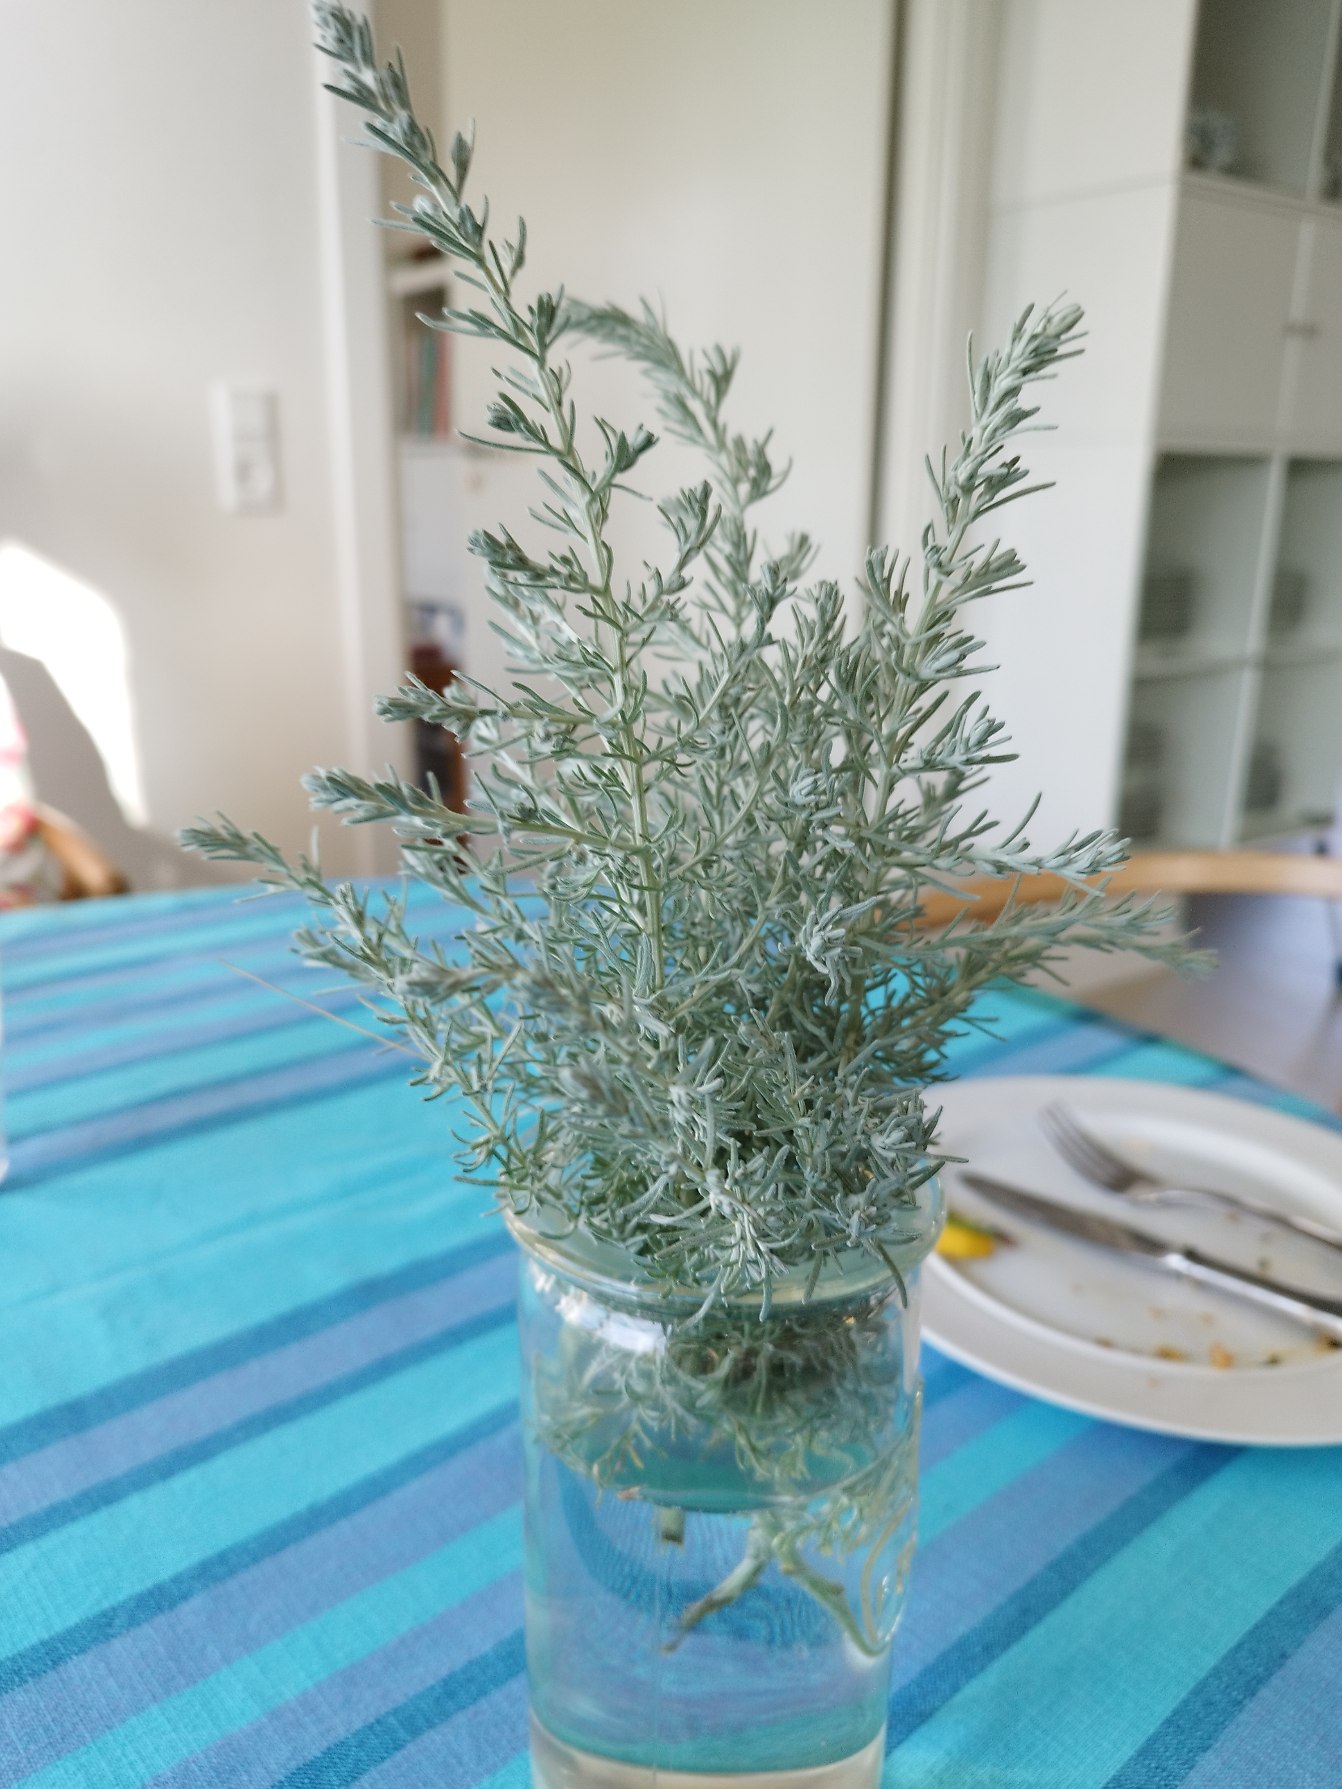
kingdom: Plantae
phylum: Tracheophyta
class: Magnoliopsida
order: Asterales
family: Asteraceae
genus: Artemisia
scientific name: Artemisia maritima
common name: Strandmalurt
